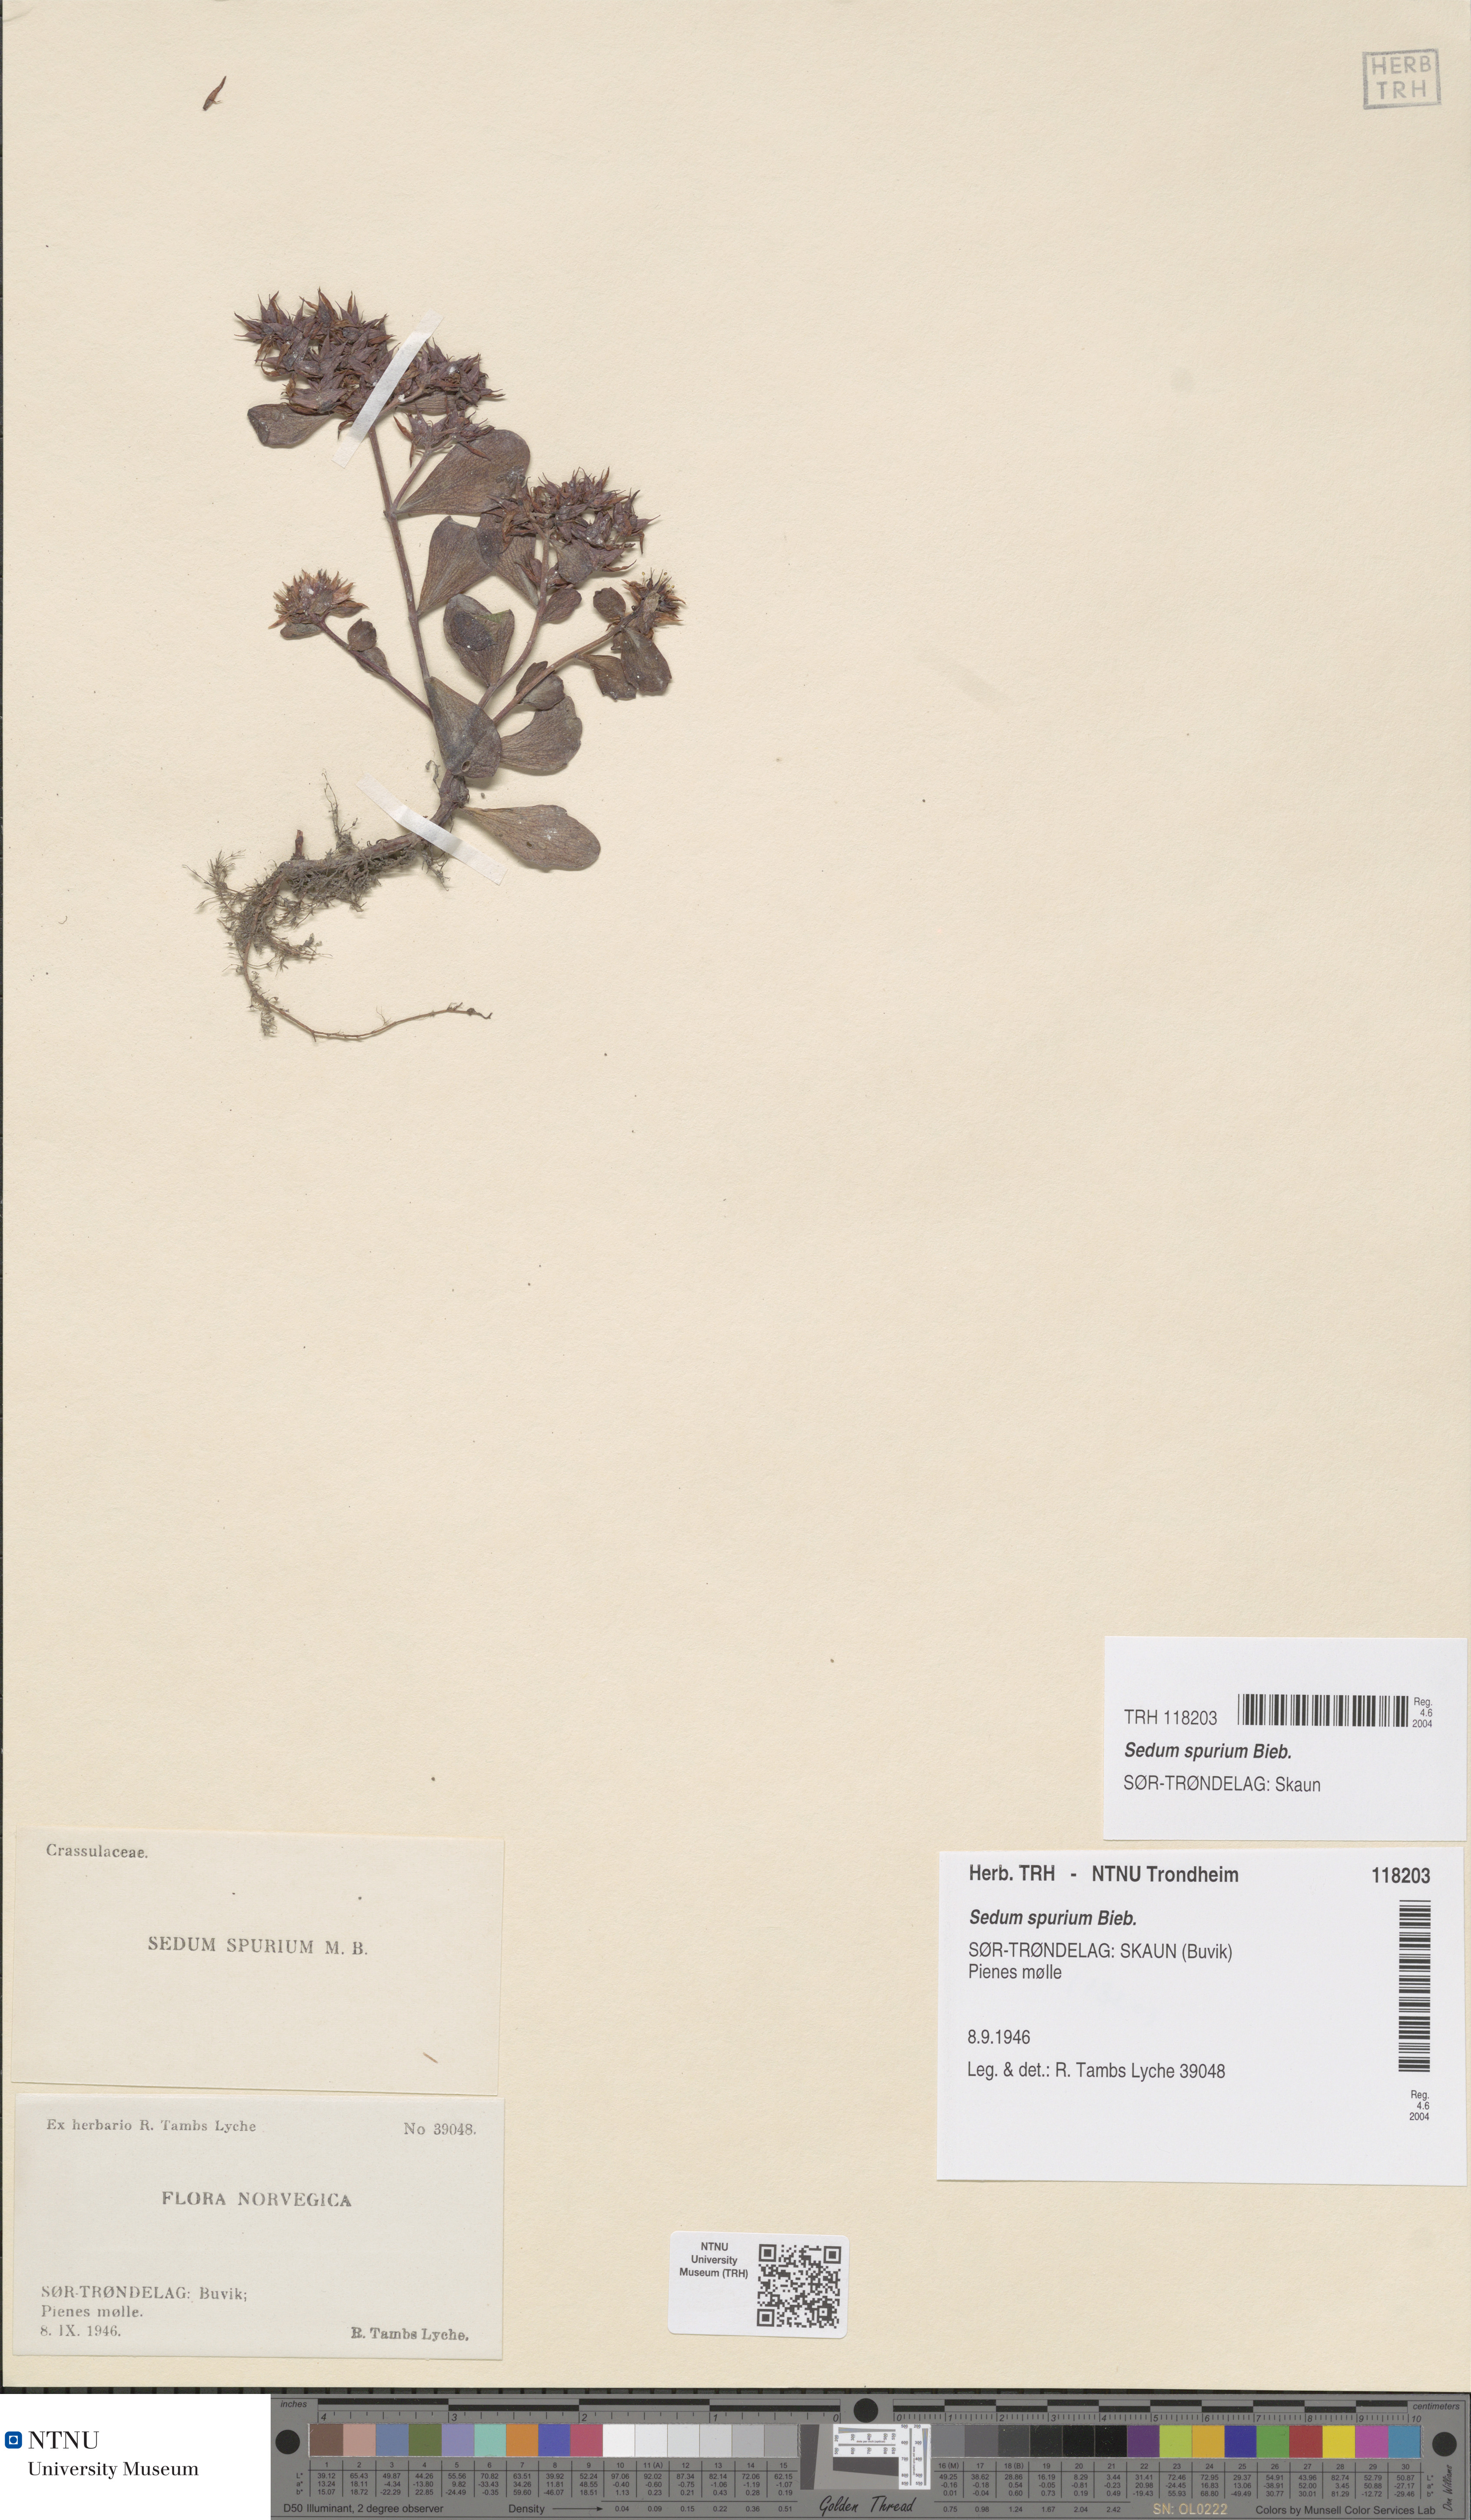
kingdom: Plantae
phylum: Tracheophyta
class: Magnoliopsida
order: Saxifragales
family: Crassulaceae
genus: Phedimus
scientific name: Phedimus spurius
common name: Caucasian stonecrop
